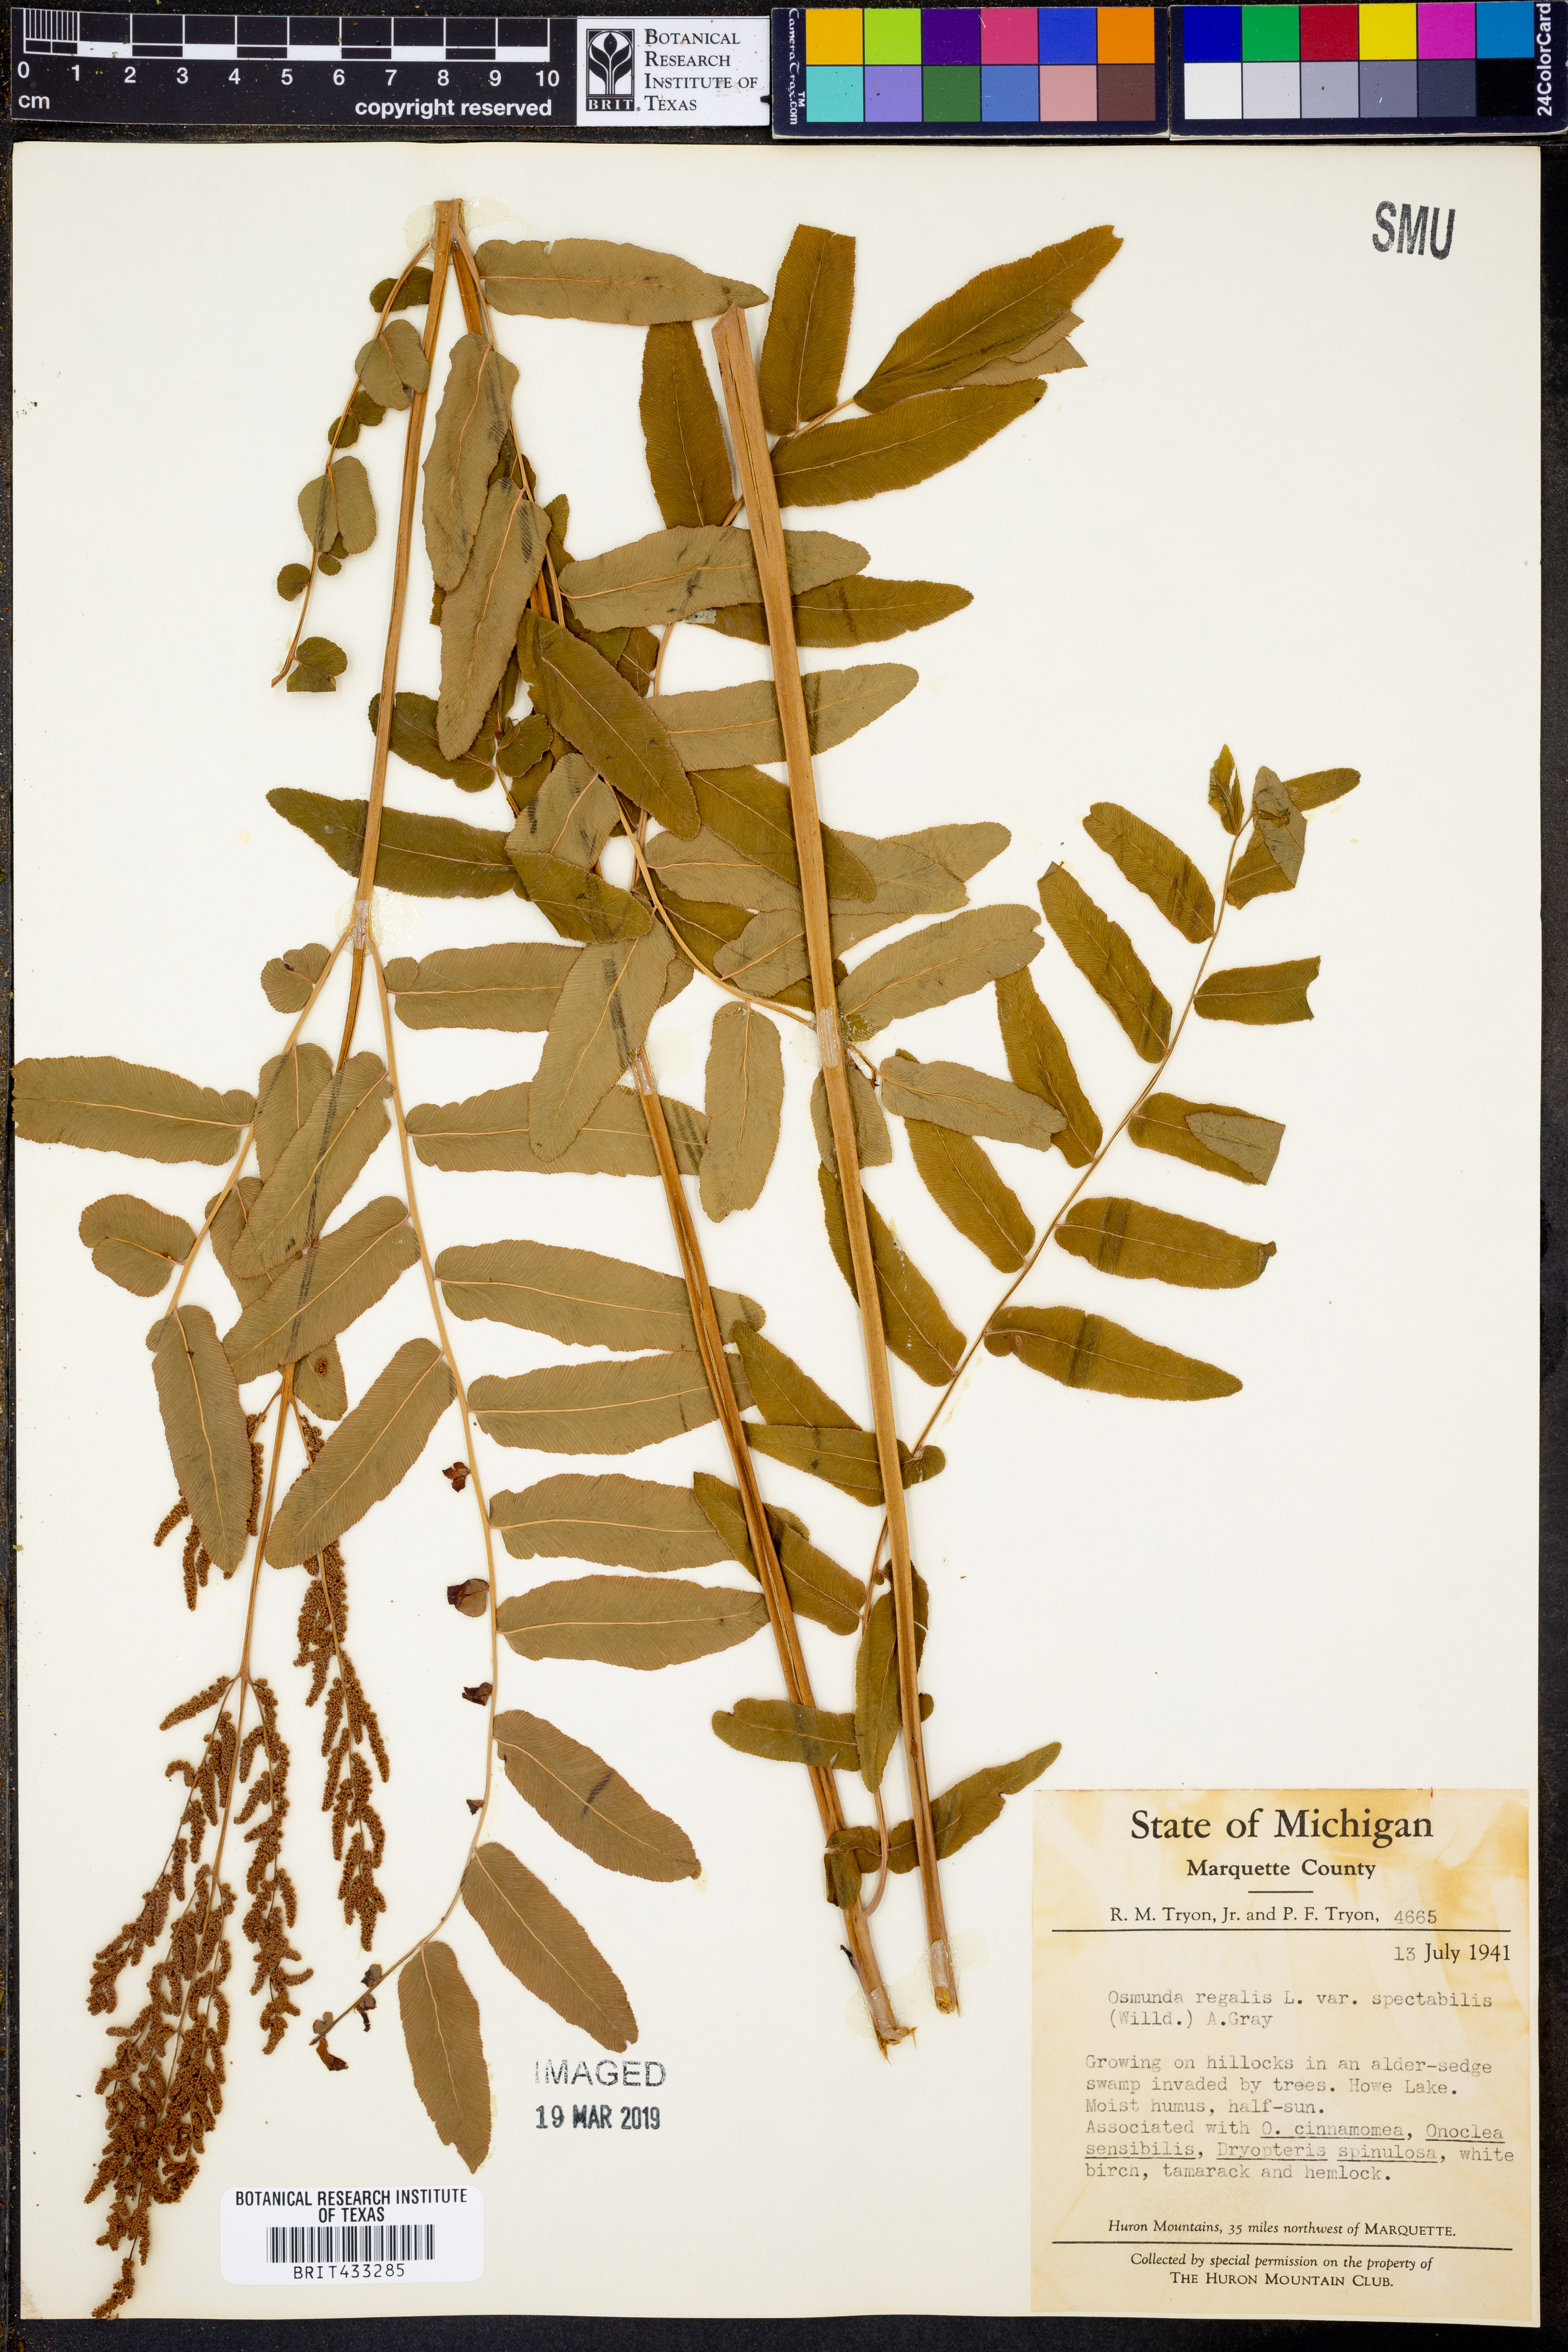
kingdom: Plantae
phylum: Tracheophyta
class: Polypodiopsida
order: Osmundales
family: Osmundaceae
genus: Osmunda
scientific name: Osmunda spectabilis
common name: American royal fern
